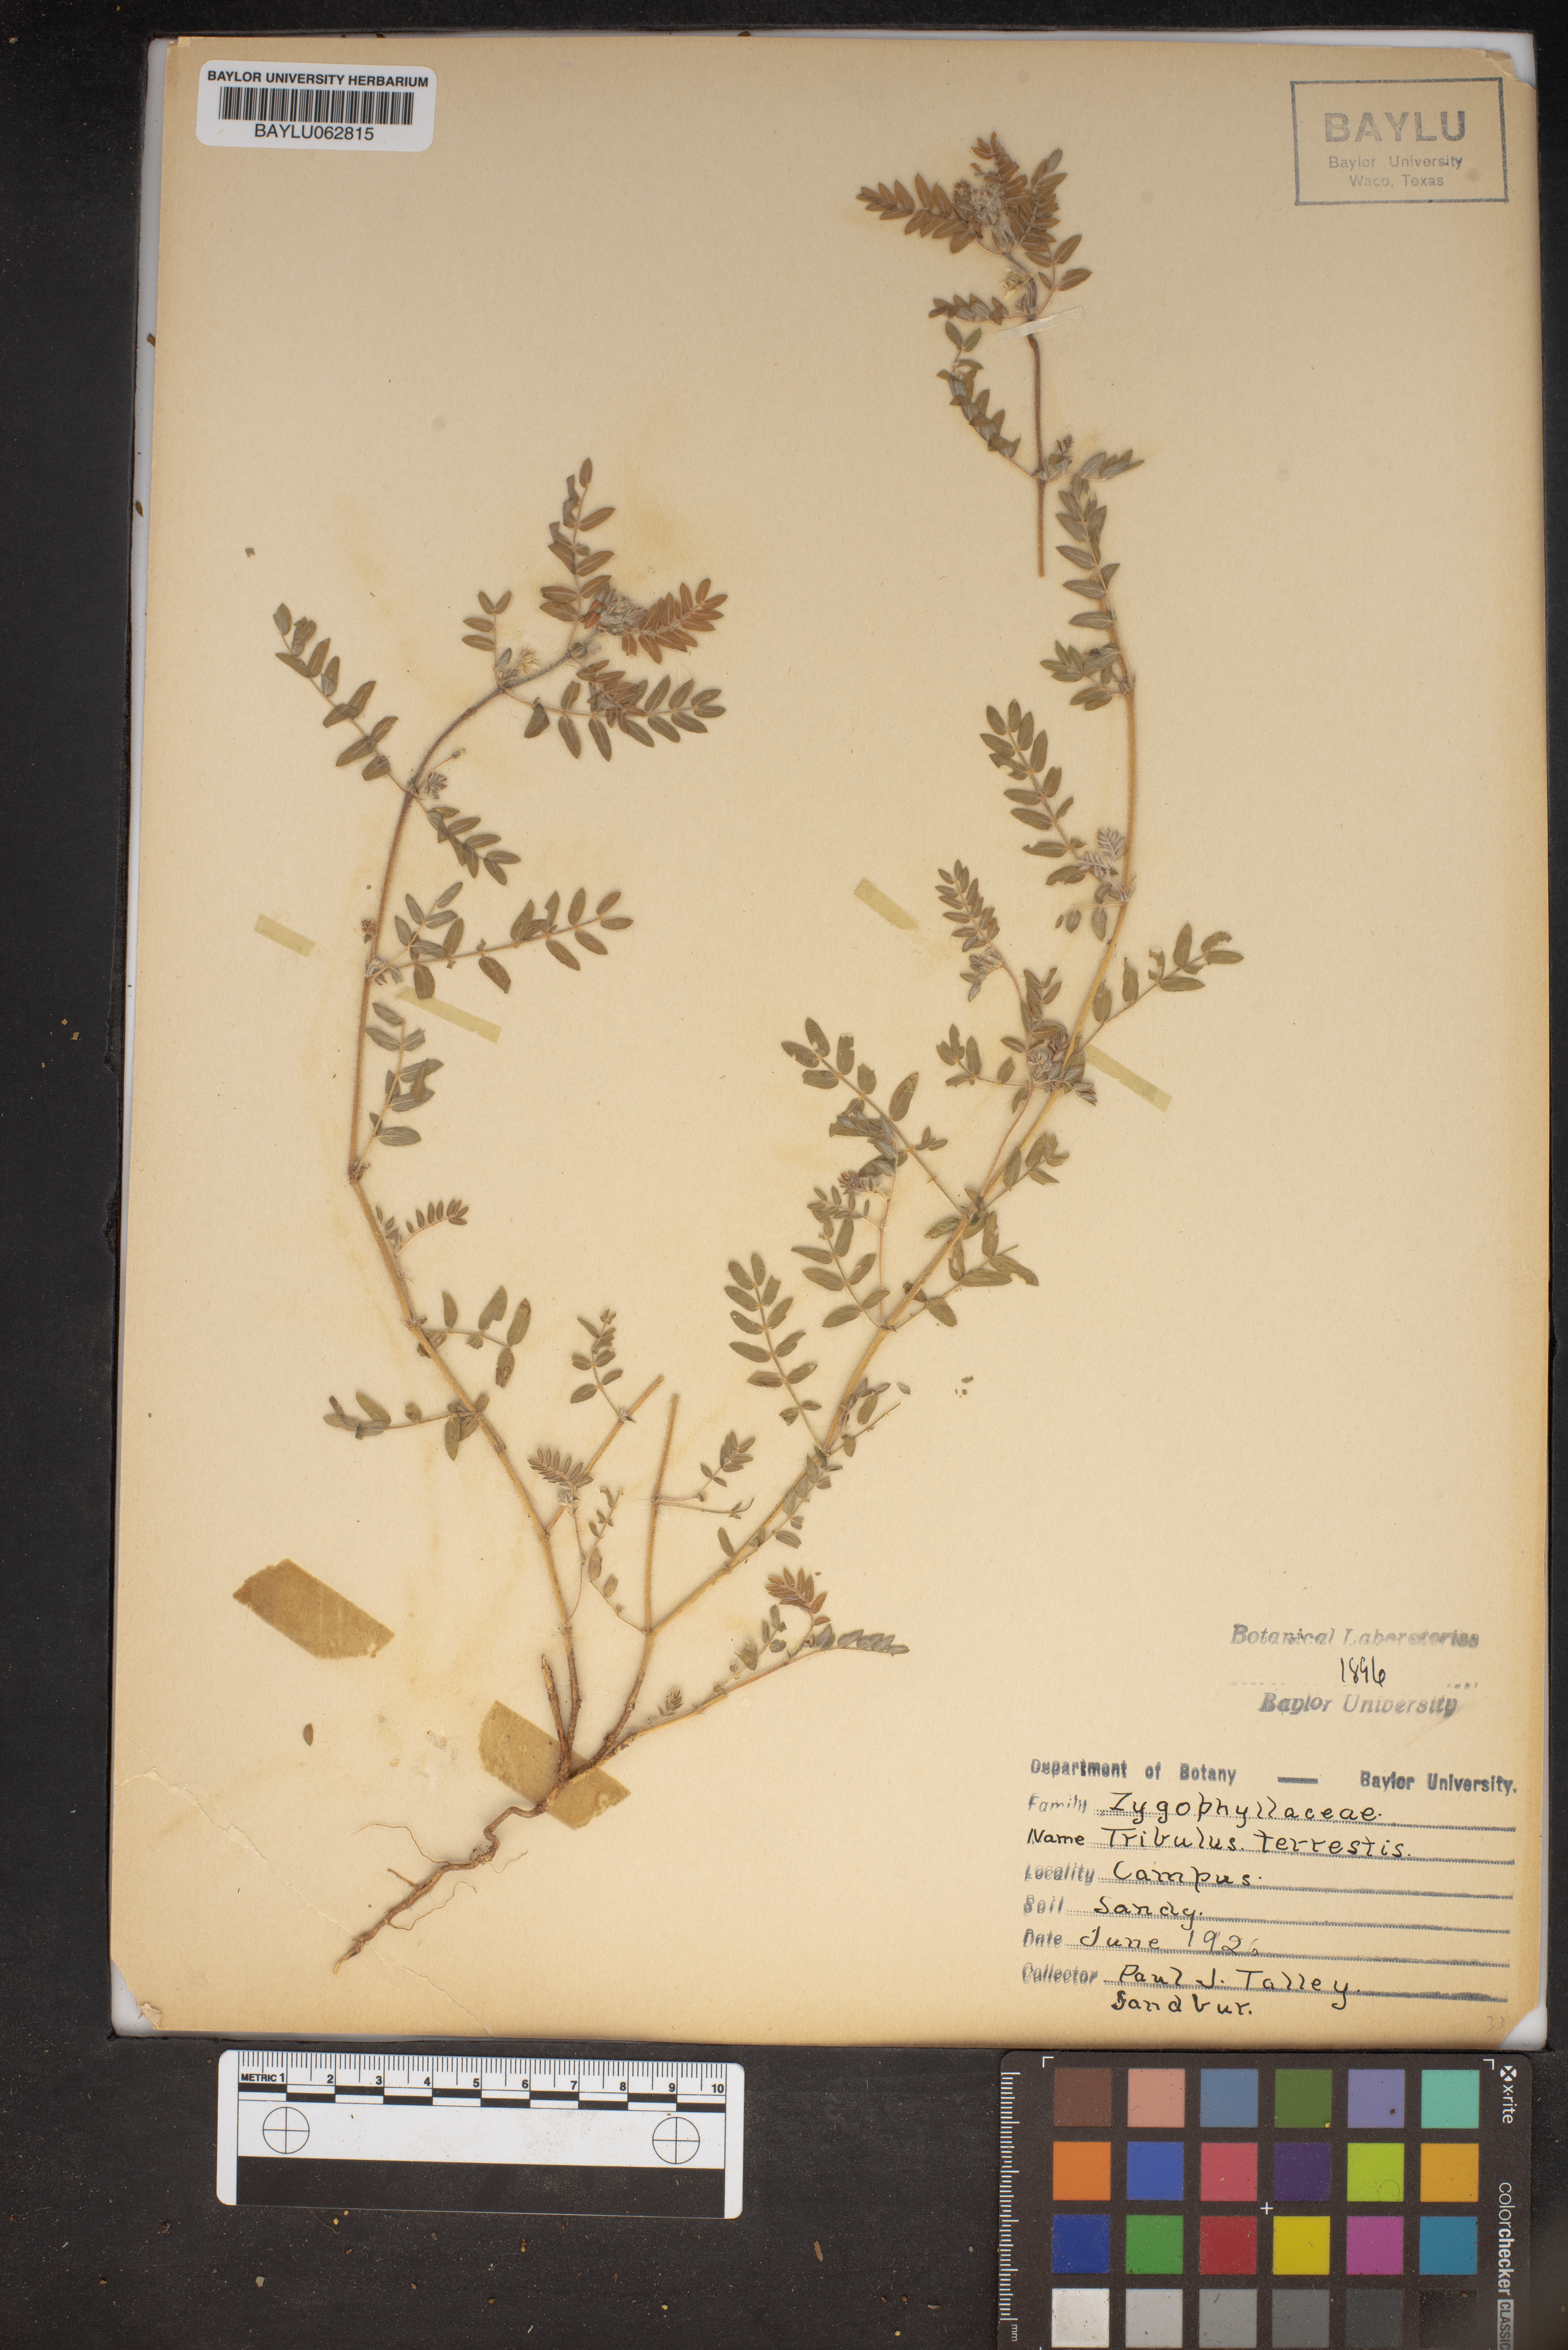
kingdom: Plantae
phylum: Tracheophyta
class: Magnoliopsida
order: Zygophyllales
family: Zygophyllaceae
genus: Tribulus
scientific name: Tribulus terrestris
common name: Puncturevine
